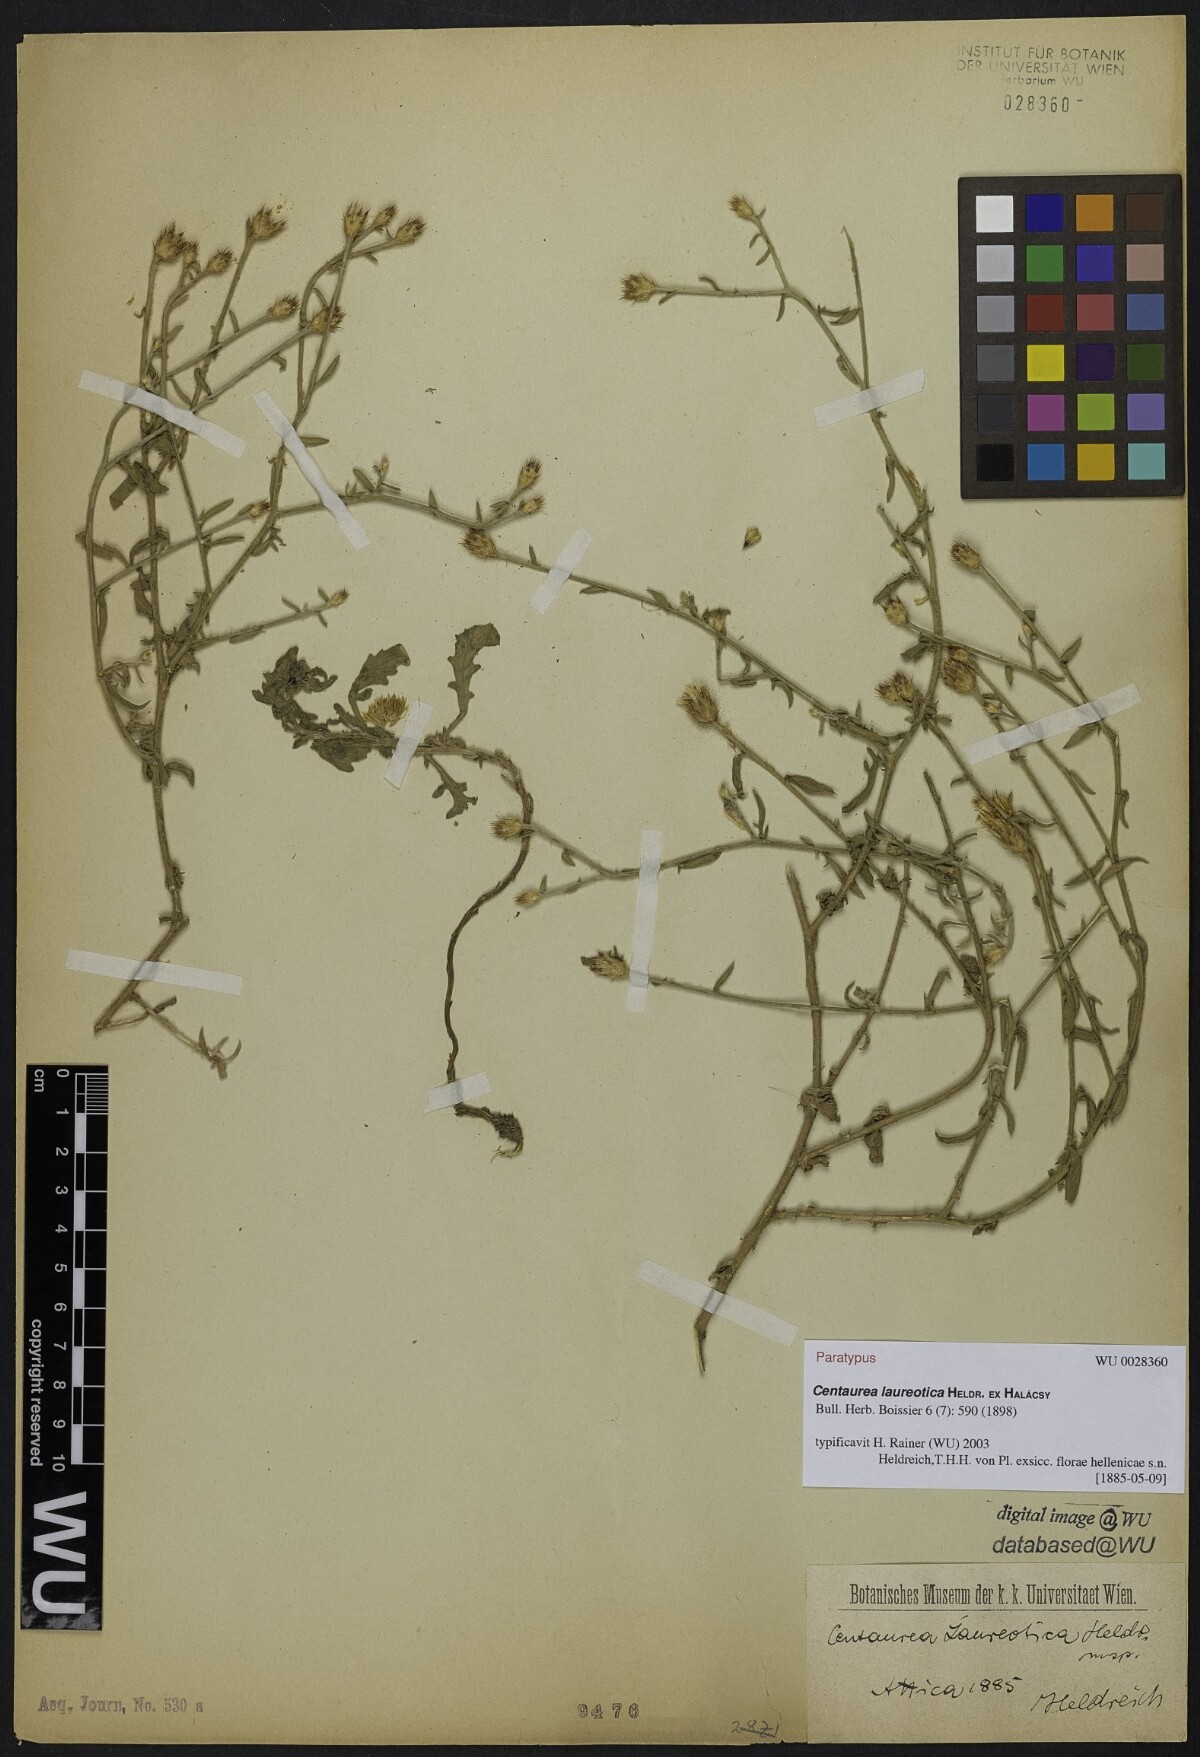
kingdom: Plantae
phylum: Tracheophyta
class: Magnoliopsida
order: Asterales
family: Asteraceae
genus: Centaurea
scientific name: Centaurea laureotica
